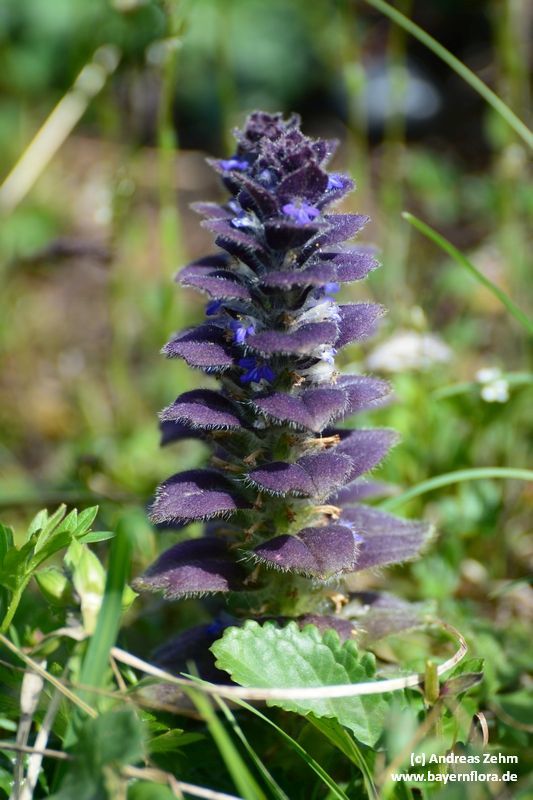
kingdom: Plantae
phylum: Tracheophyta
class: Magnoliopsida
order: Lamiales
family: Lamiaceae
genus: Ajuga
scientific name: Ajuga pyramidalis
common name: Pyramid bugle
